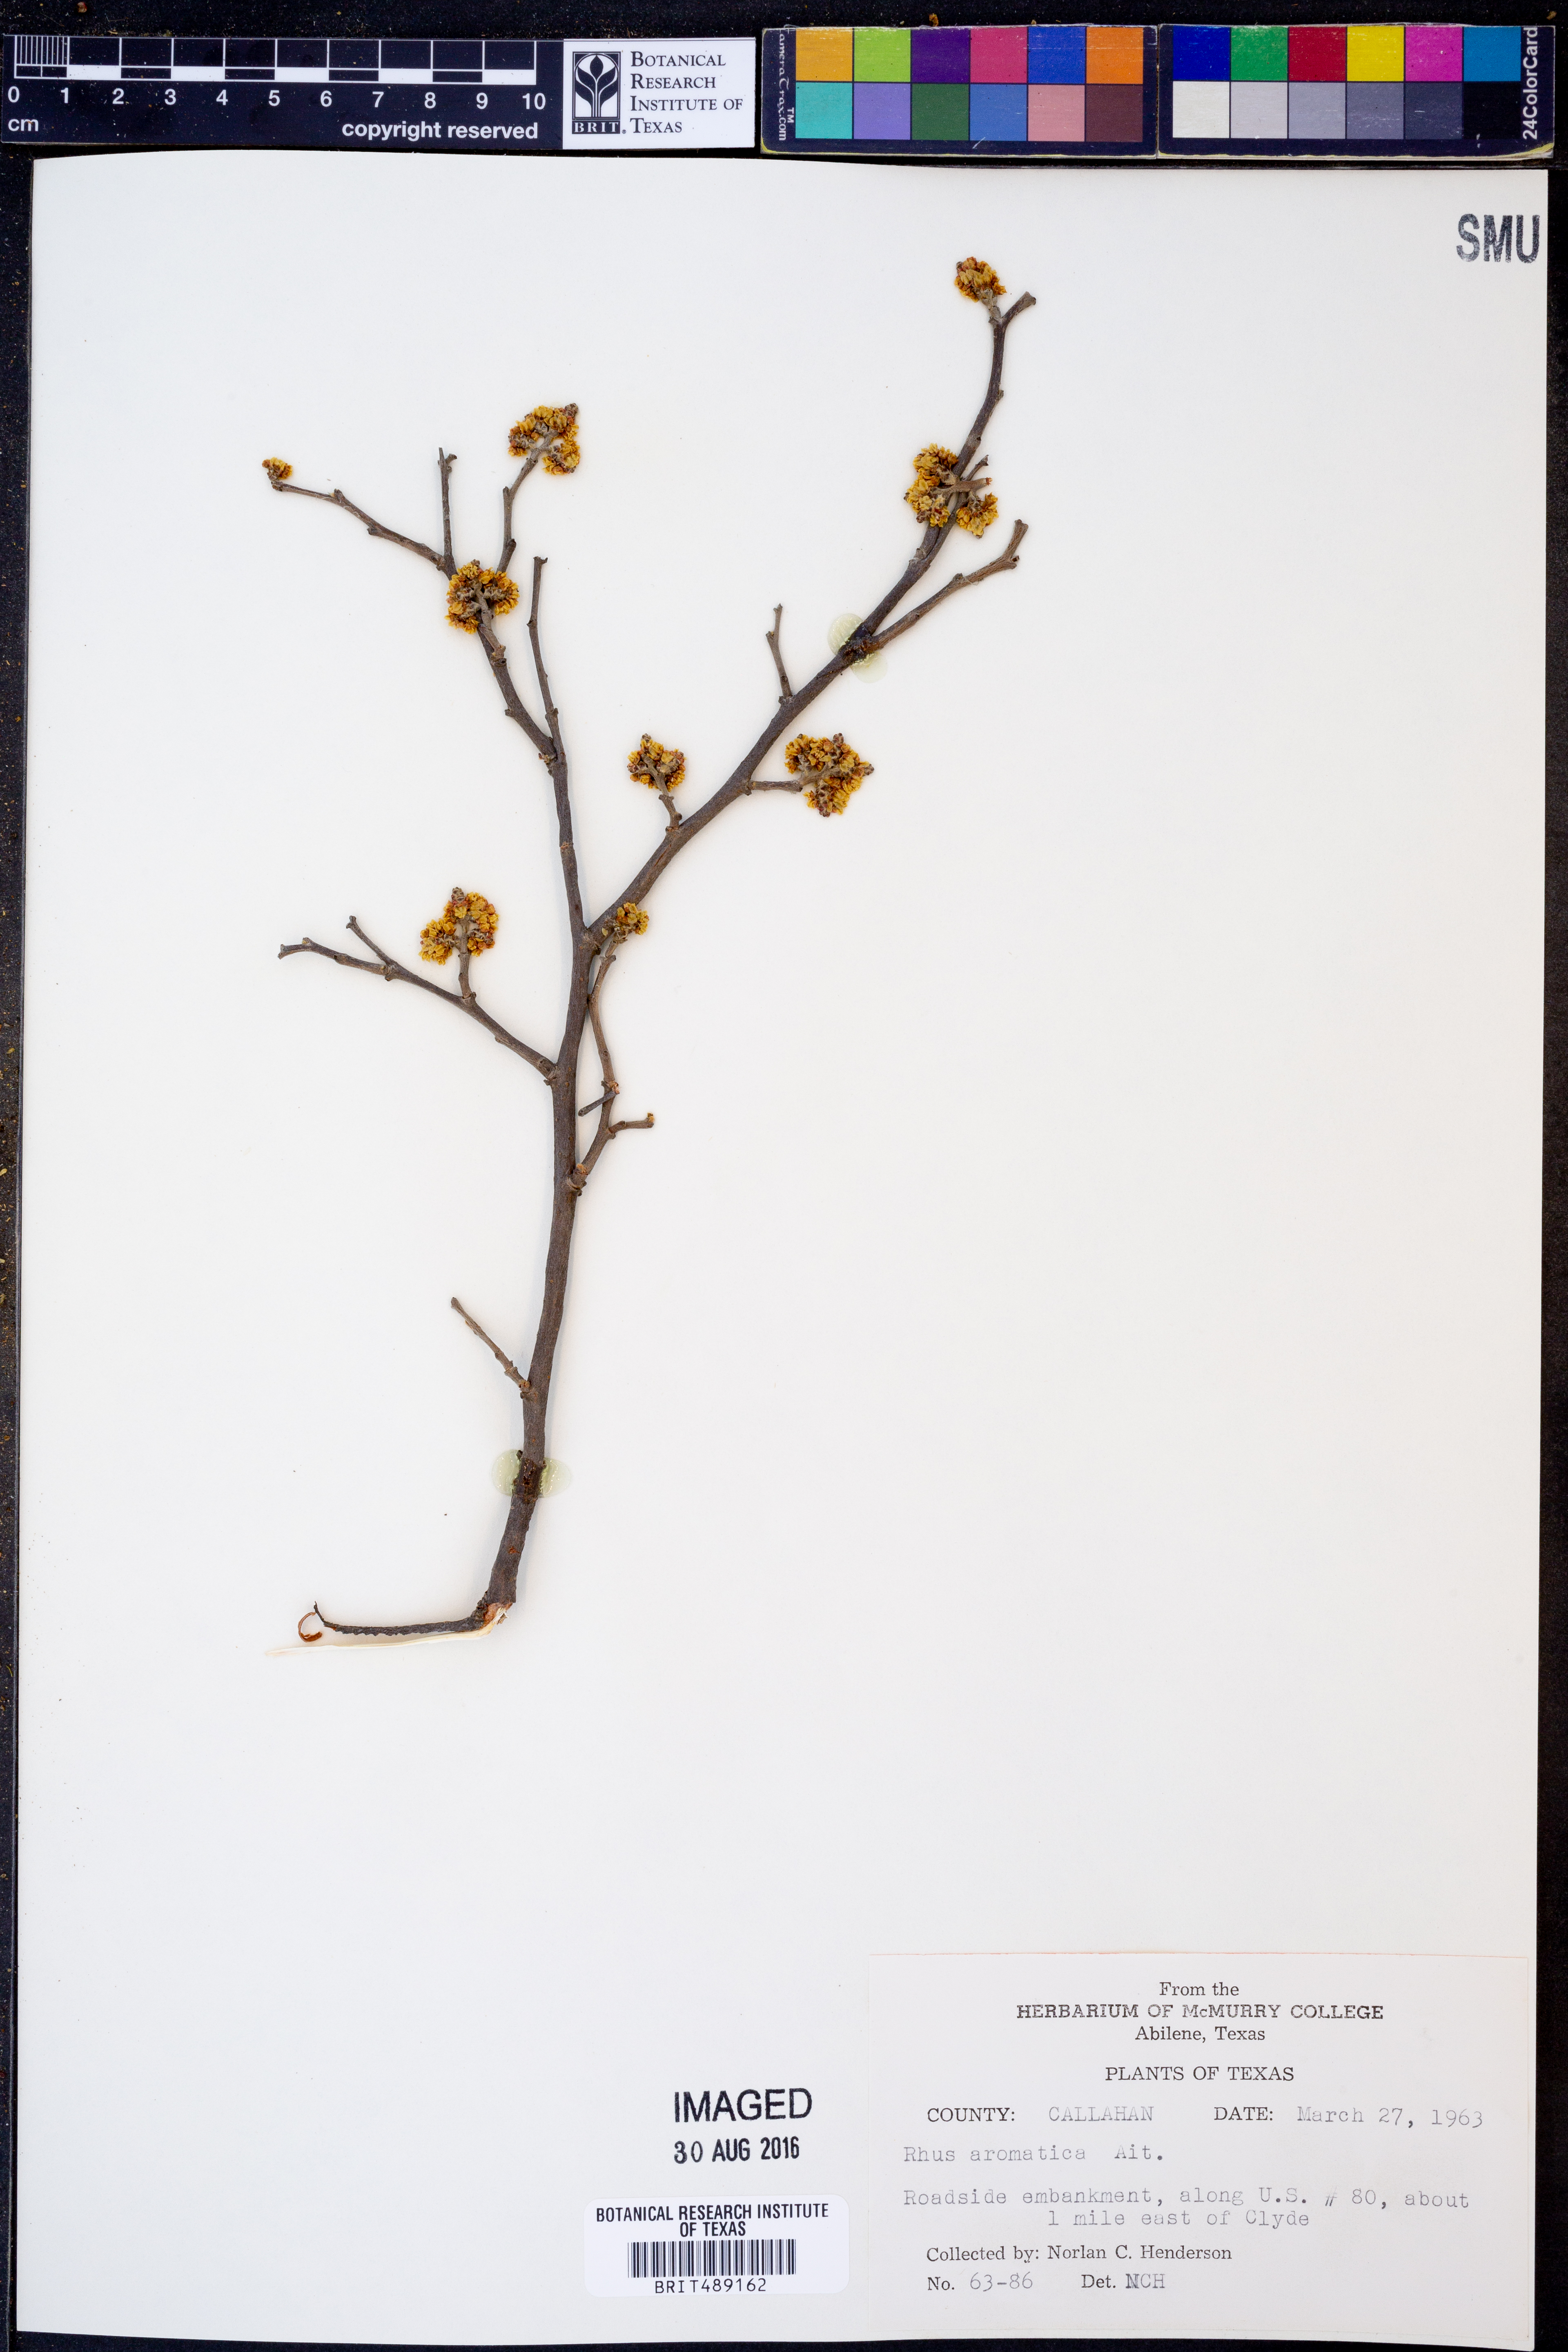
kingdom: Plantae
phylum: Tracheophyta
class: Magnoliopsida
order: Sapindales
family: Anacardiaceae
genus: Rhus
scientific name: Rhus aromatica
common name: Aromatic sumac
